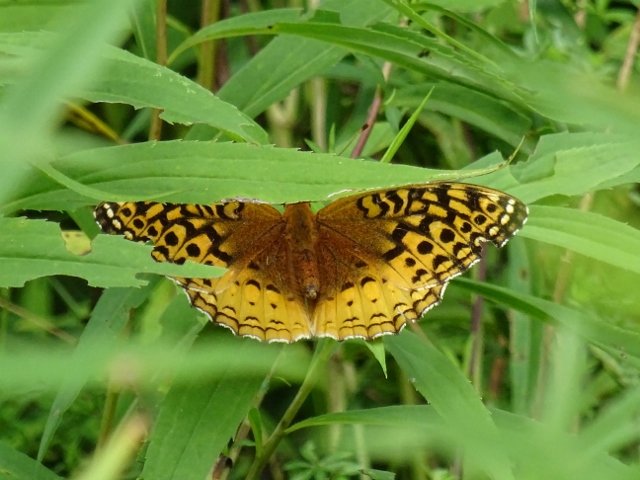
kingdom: Animalia
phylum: Arthropoda
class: Insecta
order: Lepidoptera
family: Nymphalidae
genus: Speyeria
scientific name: Speyeria cybele
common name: Great Spangled Fritillary
